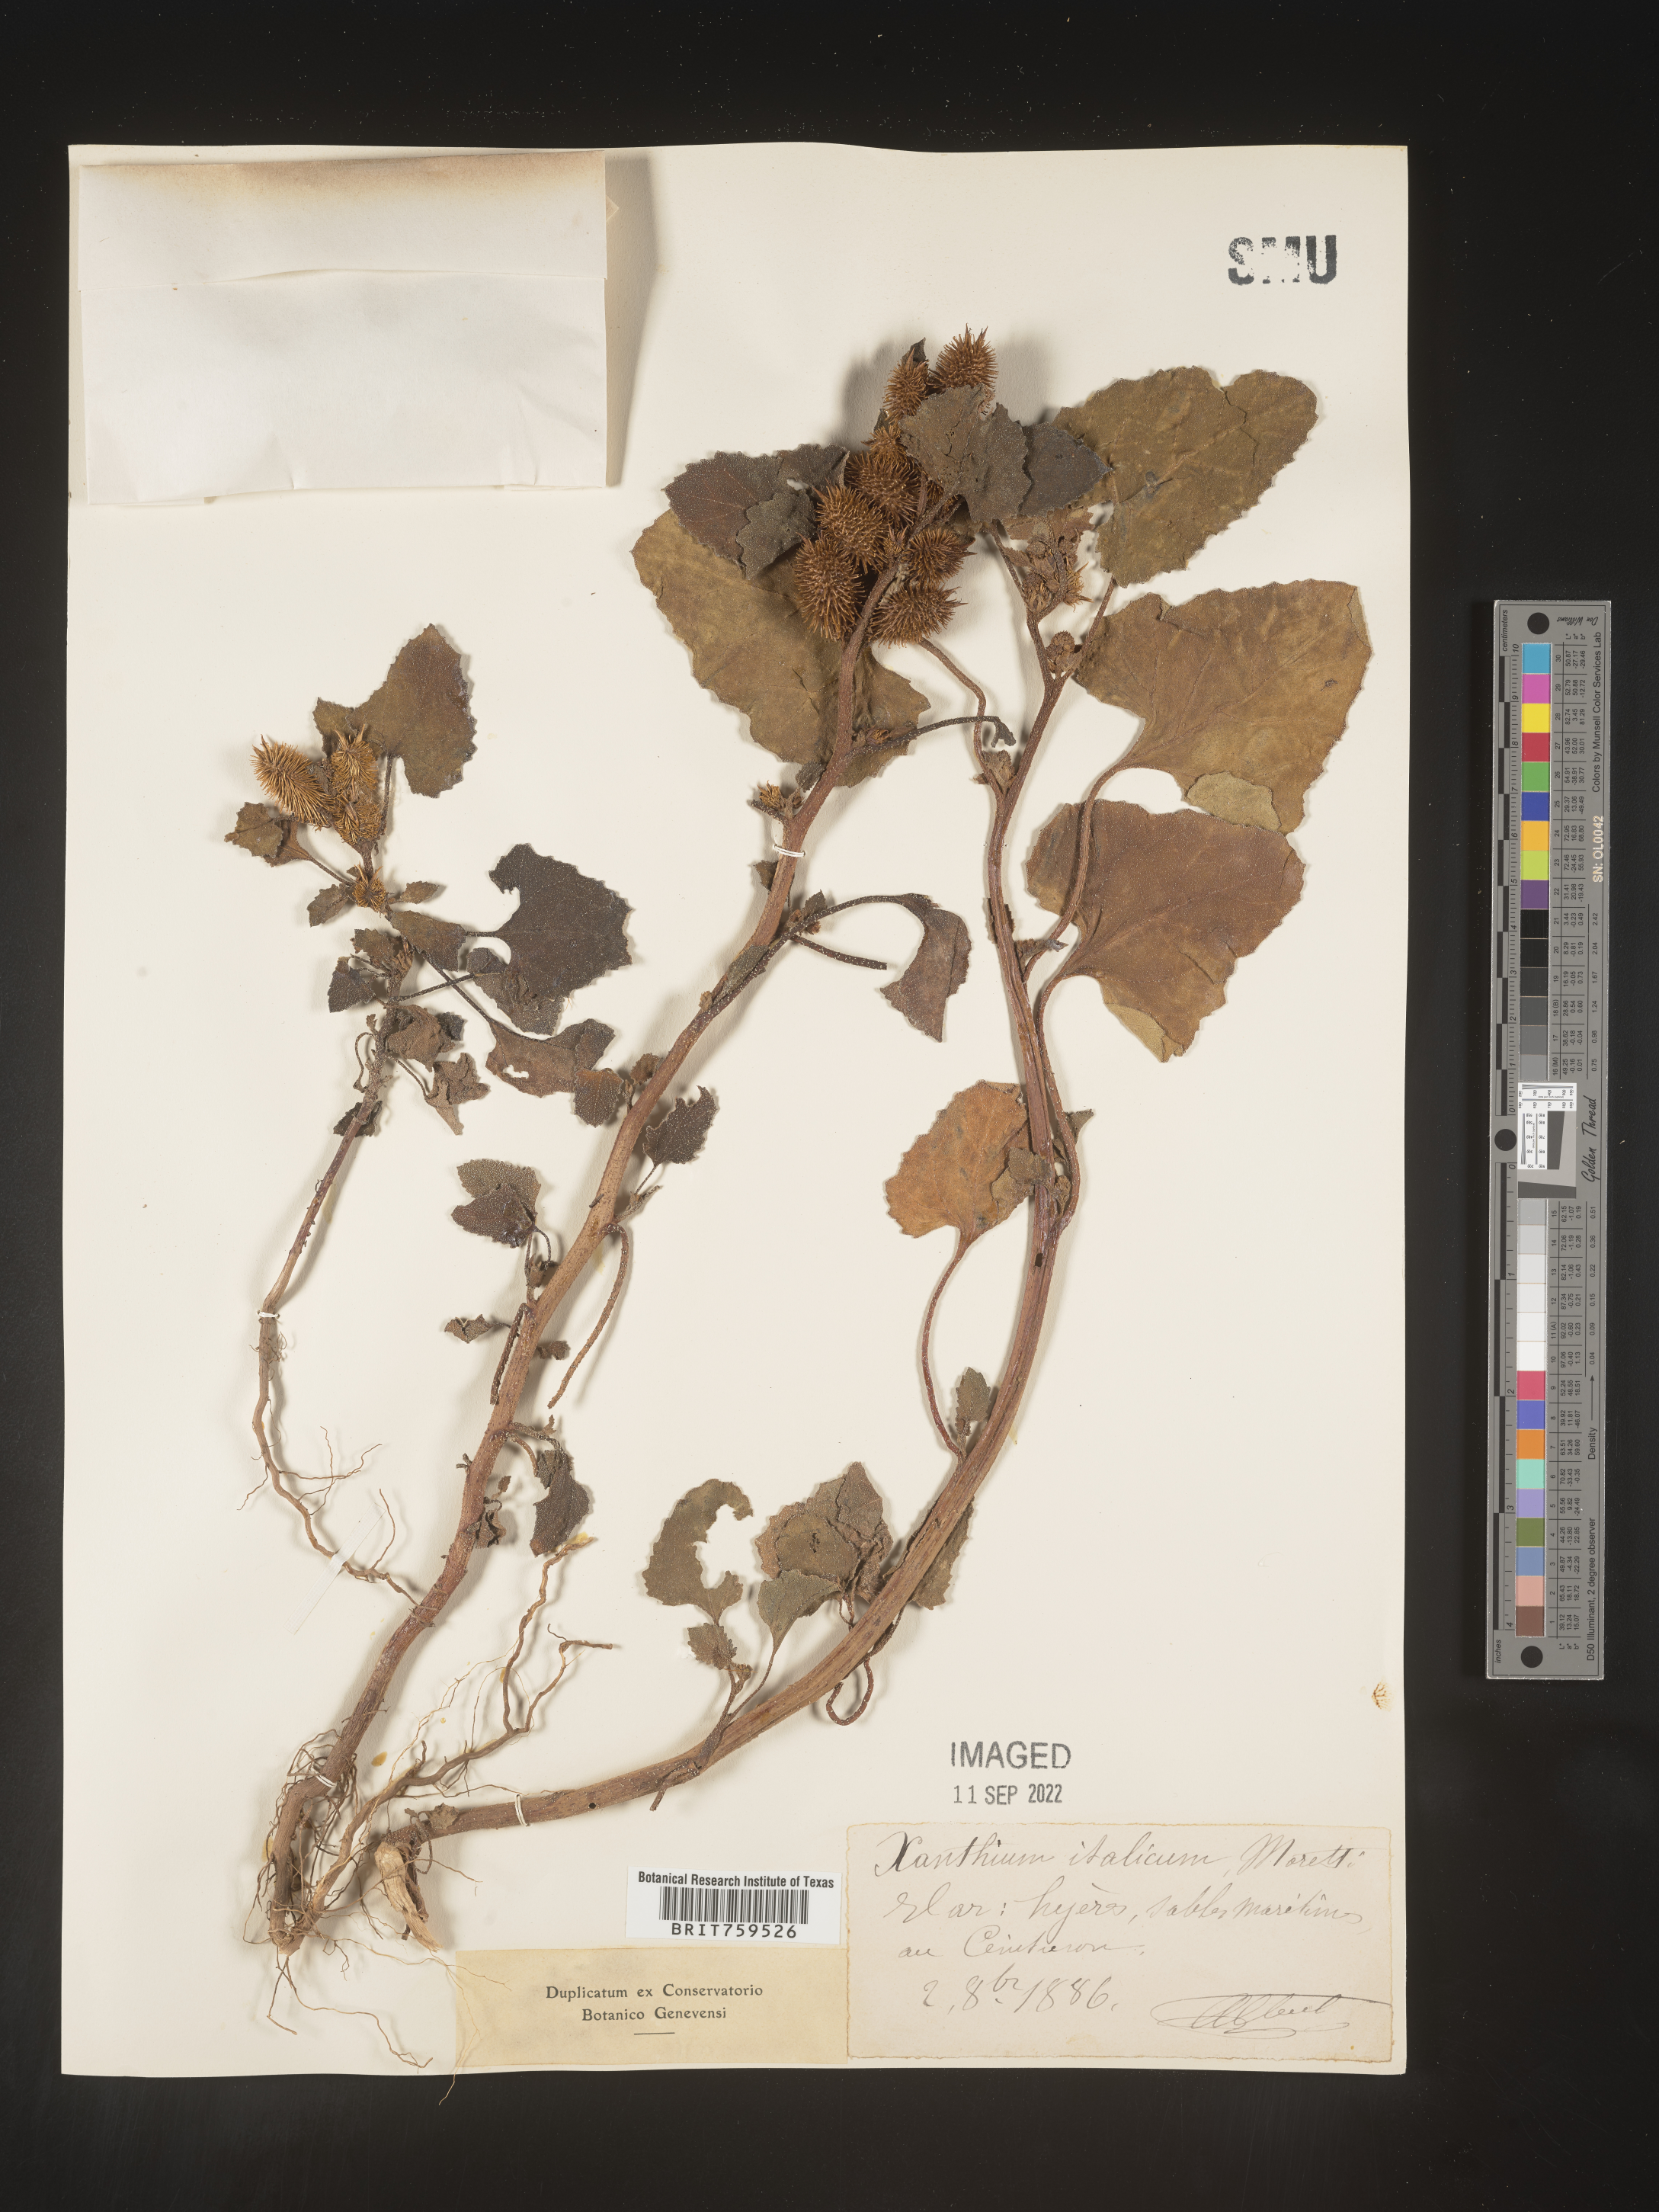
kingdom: Plantae
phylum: Tracheophyta
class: Magnoliopsida
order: Asterales
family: Asteraceae
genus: Xanthium
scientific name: Xanthium
